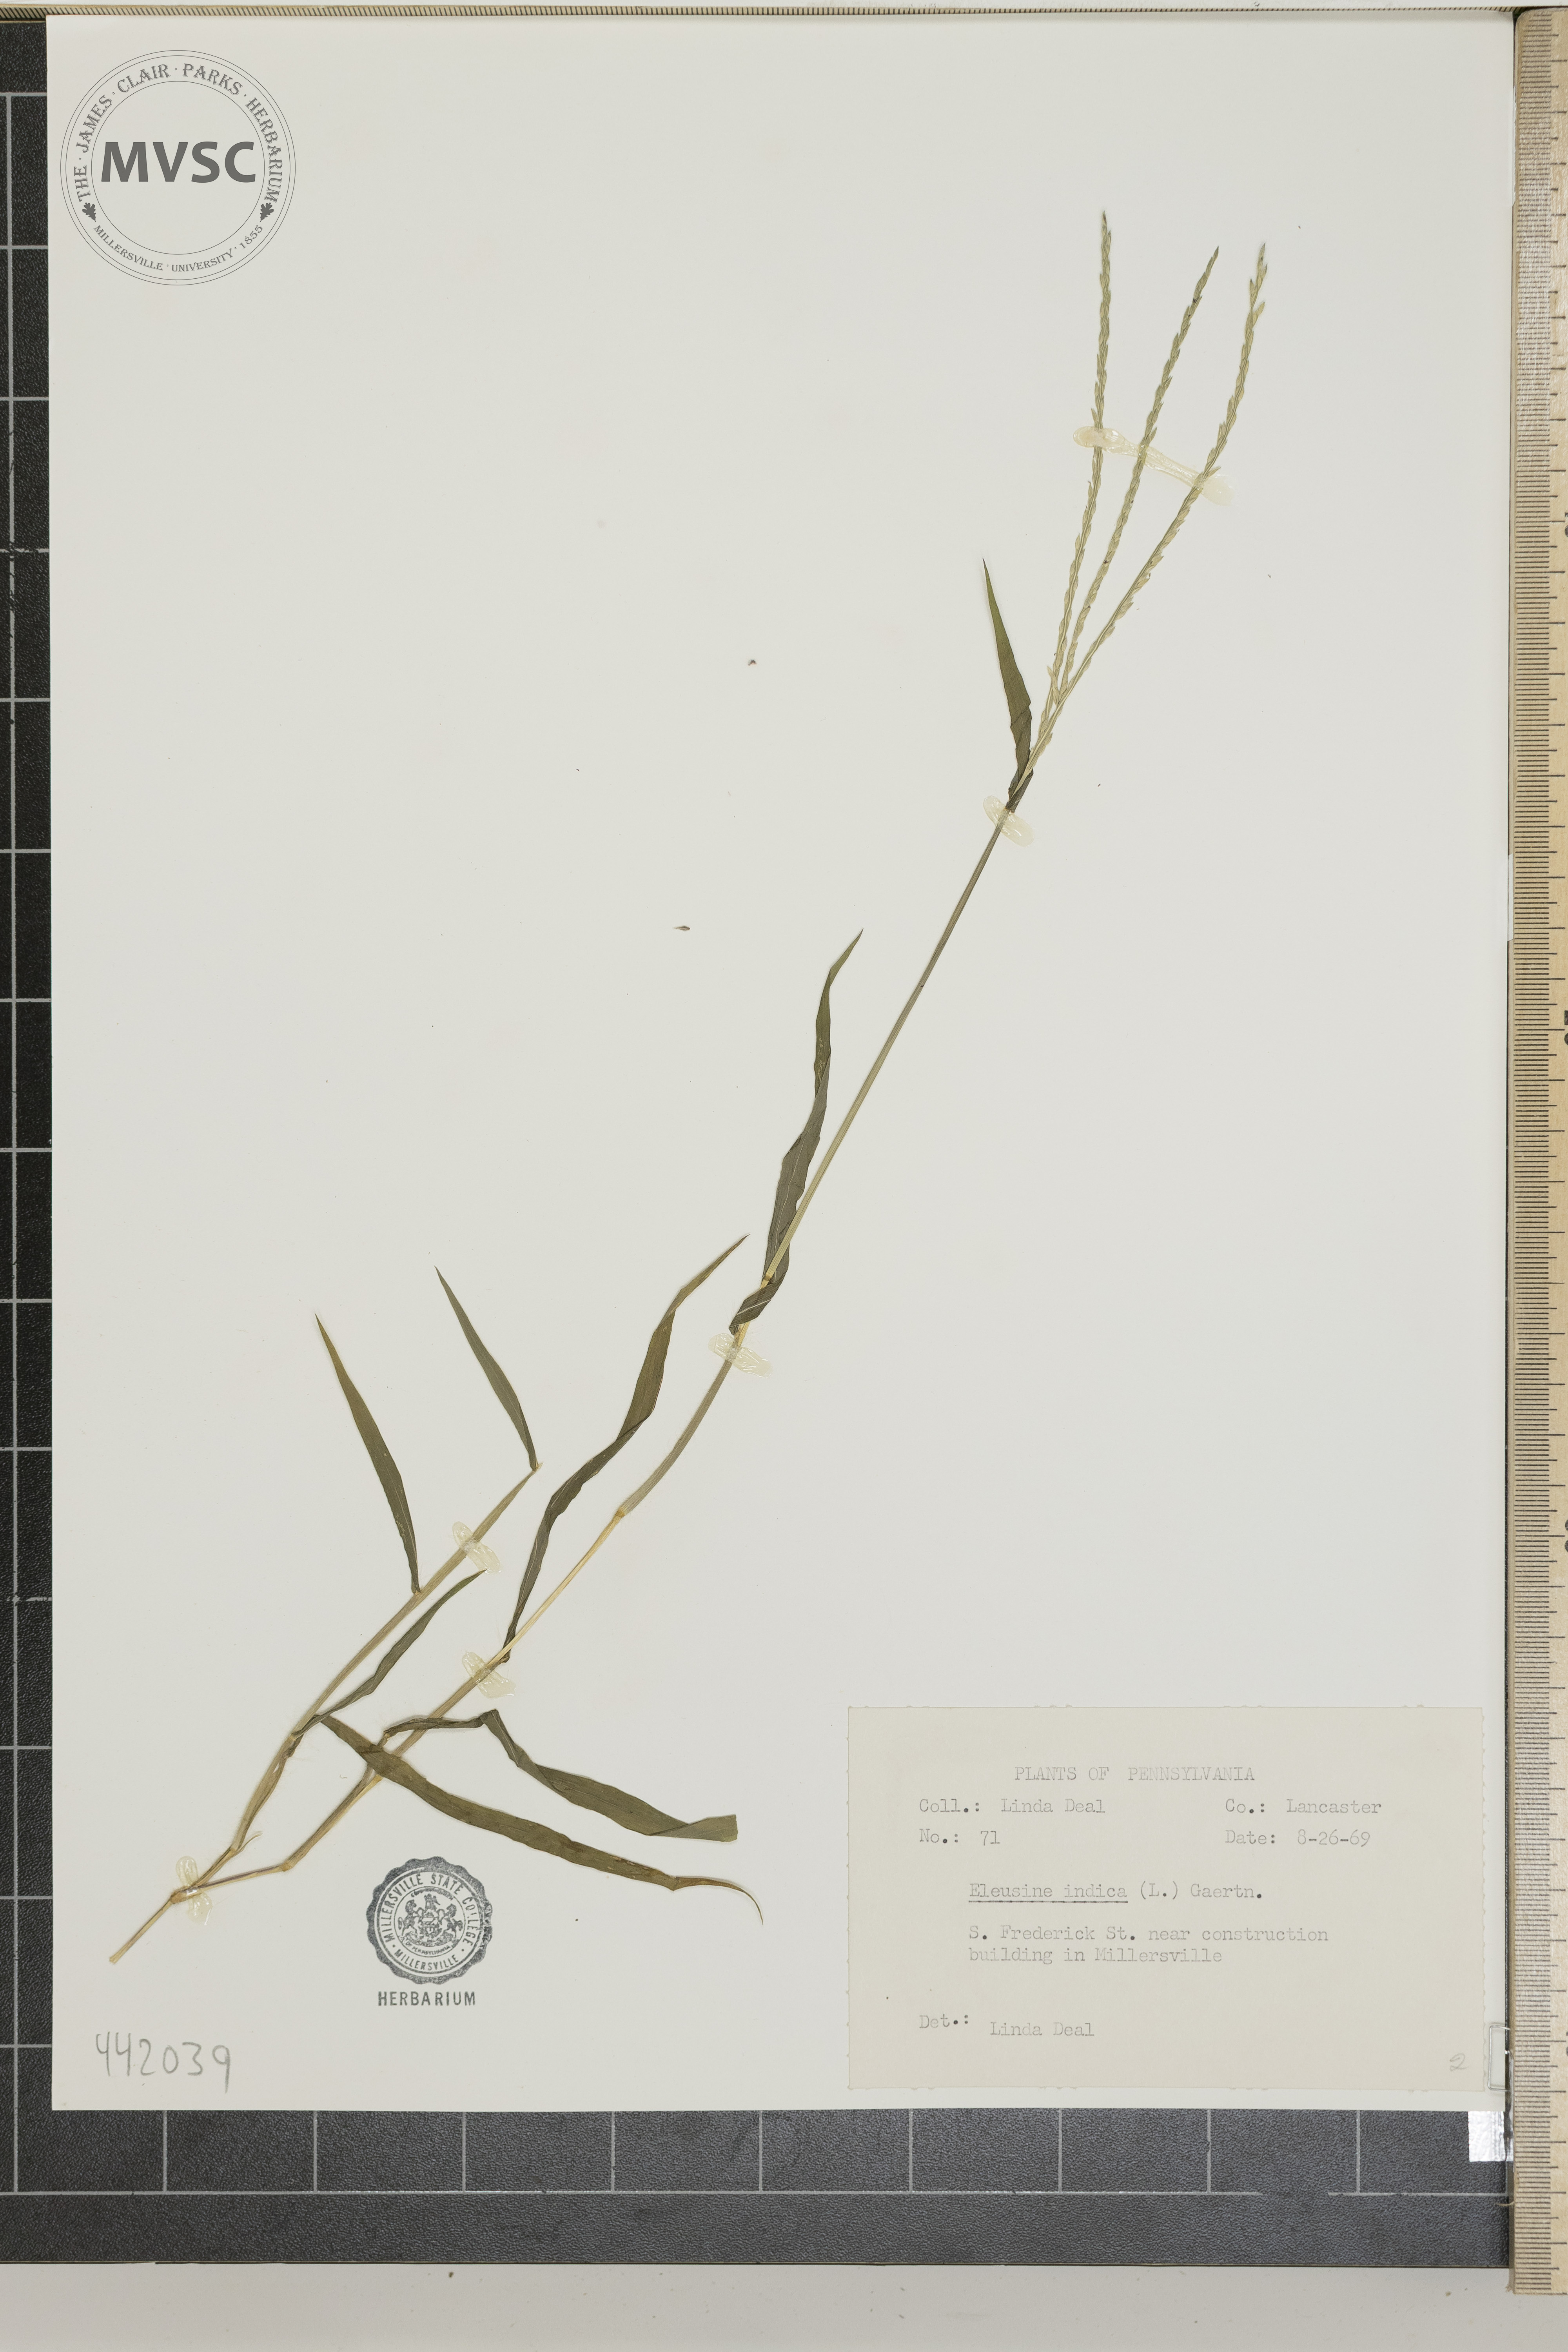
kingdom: Plantae
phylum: Tracheophyta
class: Liliopsida
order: Poales
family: Poaceae
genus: Digitaria
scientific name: Digitaria ischaemum
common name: Smooth crabgrass
